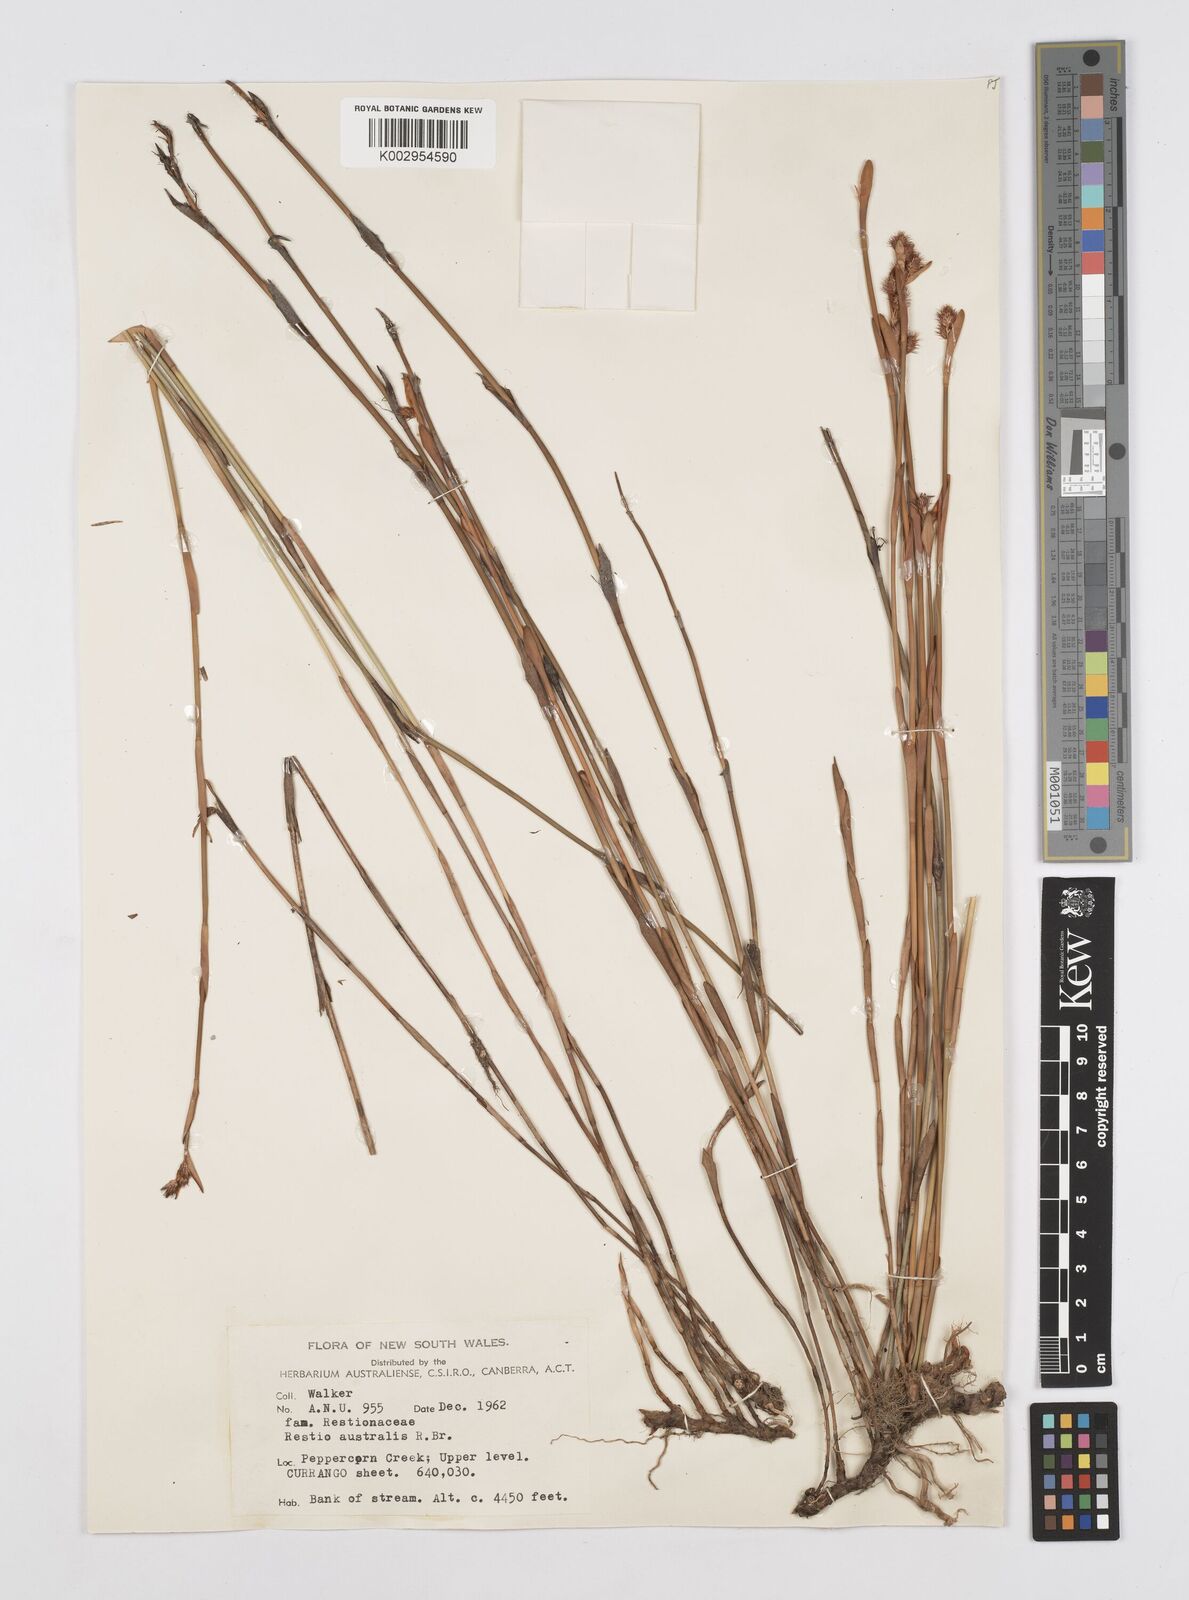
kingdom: Plantae
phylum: Tracheophyta
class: Liliopsida
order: Poales
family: Restionaceae
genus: Baloskion
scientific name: Baloskion australe
